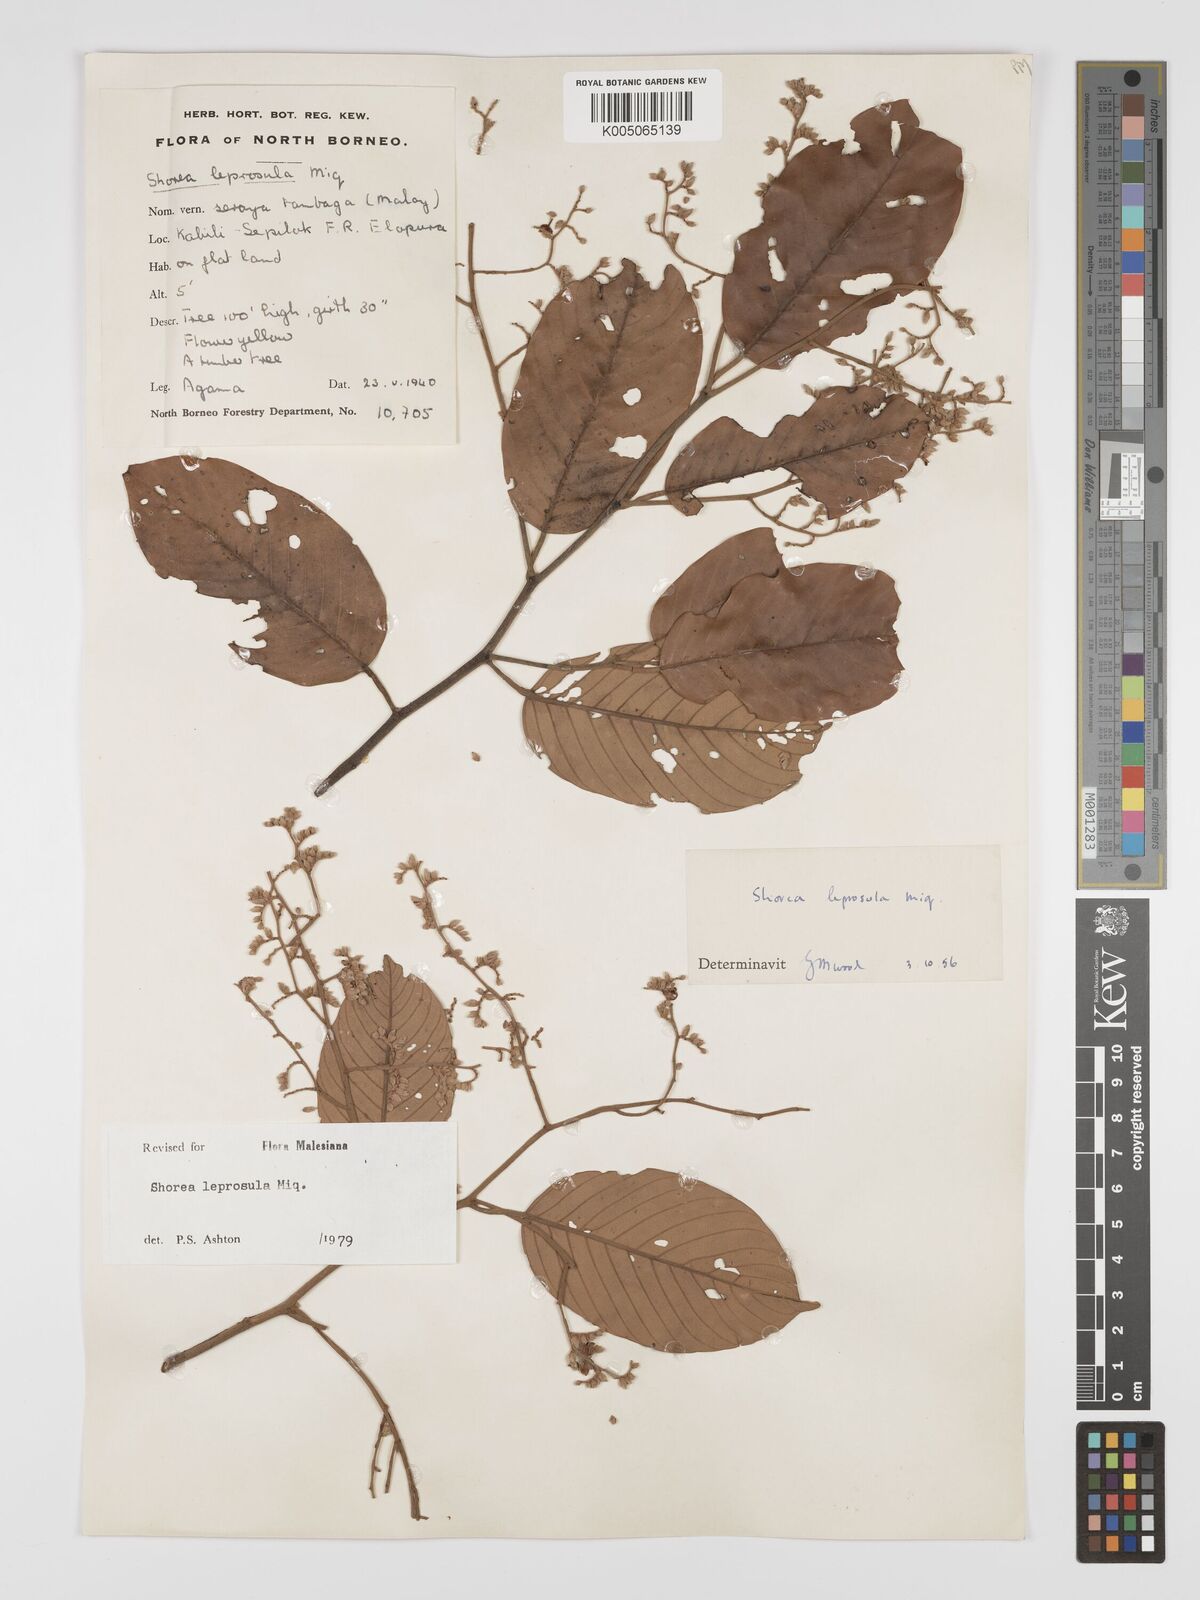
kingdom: Plantae
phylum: Tracheophyta
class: Magnoliopsida
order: Malvales
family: Dipterocarpaceae
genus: Shorea
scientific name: Shorea leprosula
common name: Light red meranti
